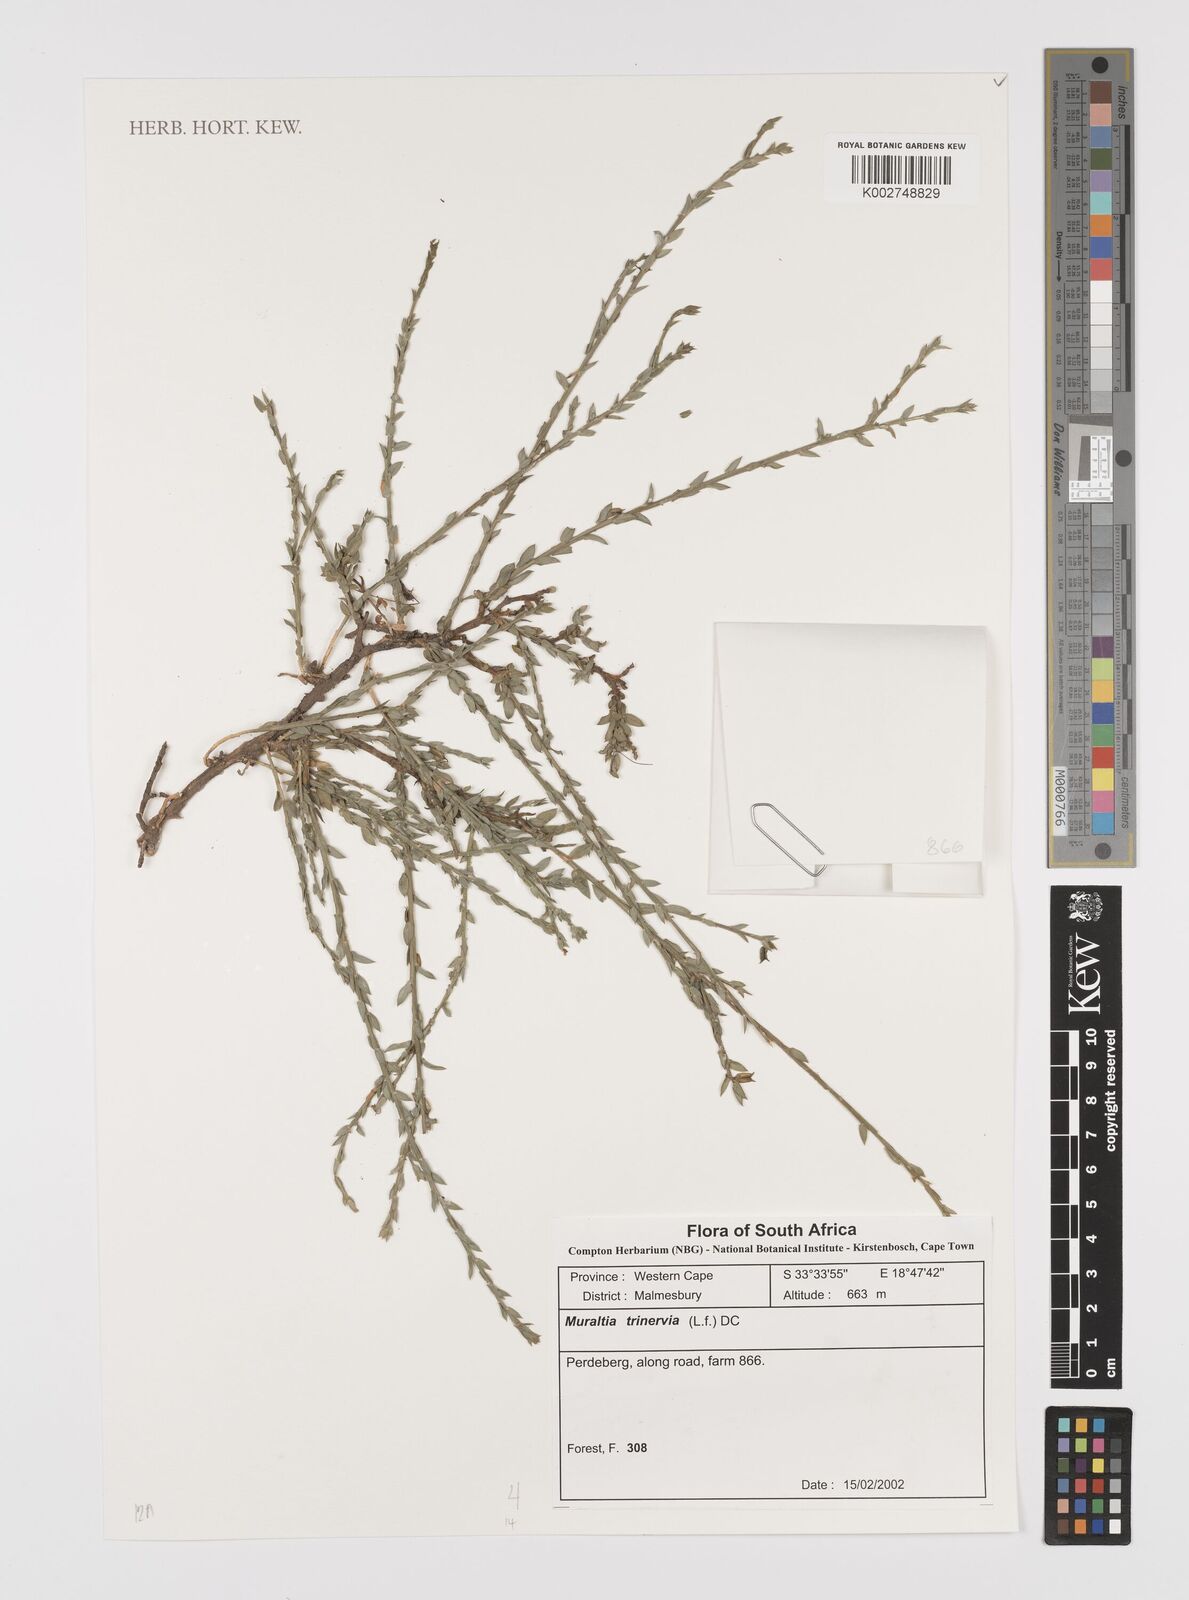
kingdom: Plantae
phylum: Tracheophyta
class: Magnoliopsida
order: Fabales
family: Polygalaceae
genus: Muraltia
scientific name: Muraltia trinervia
